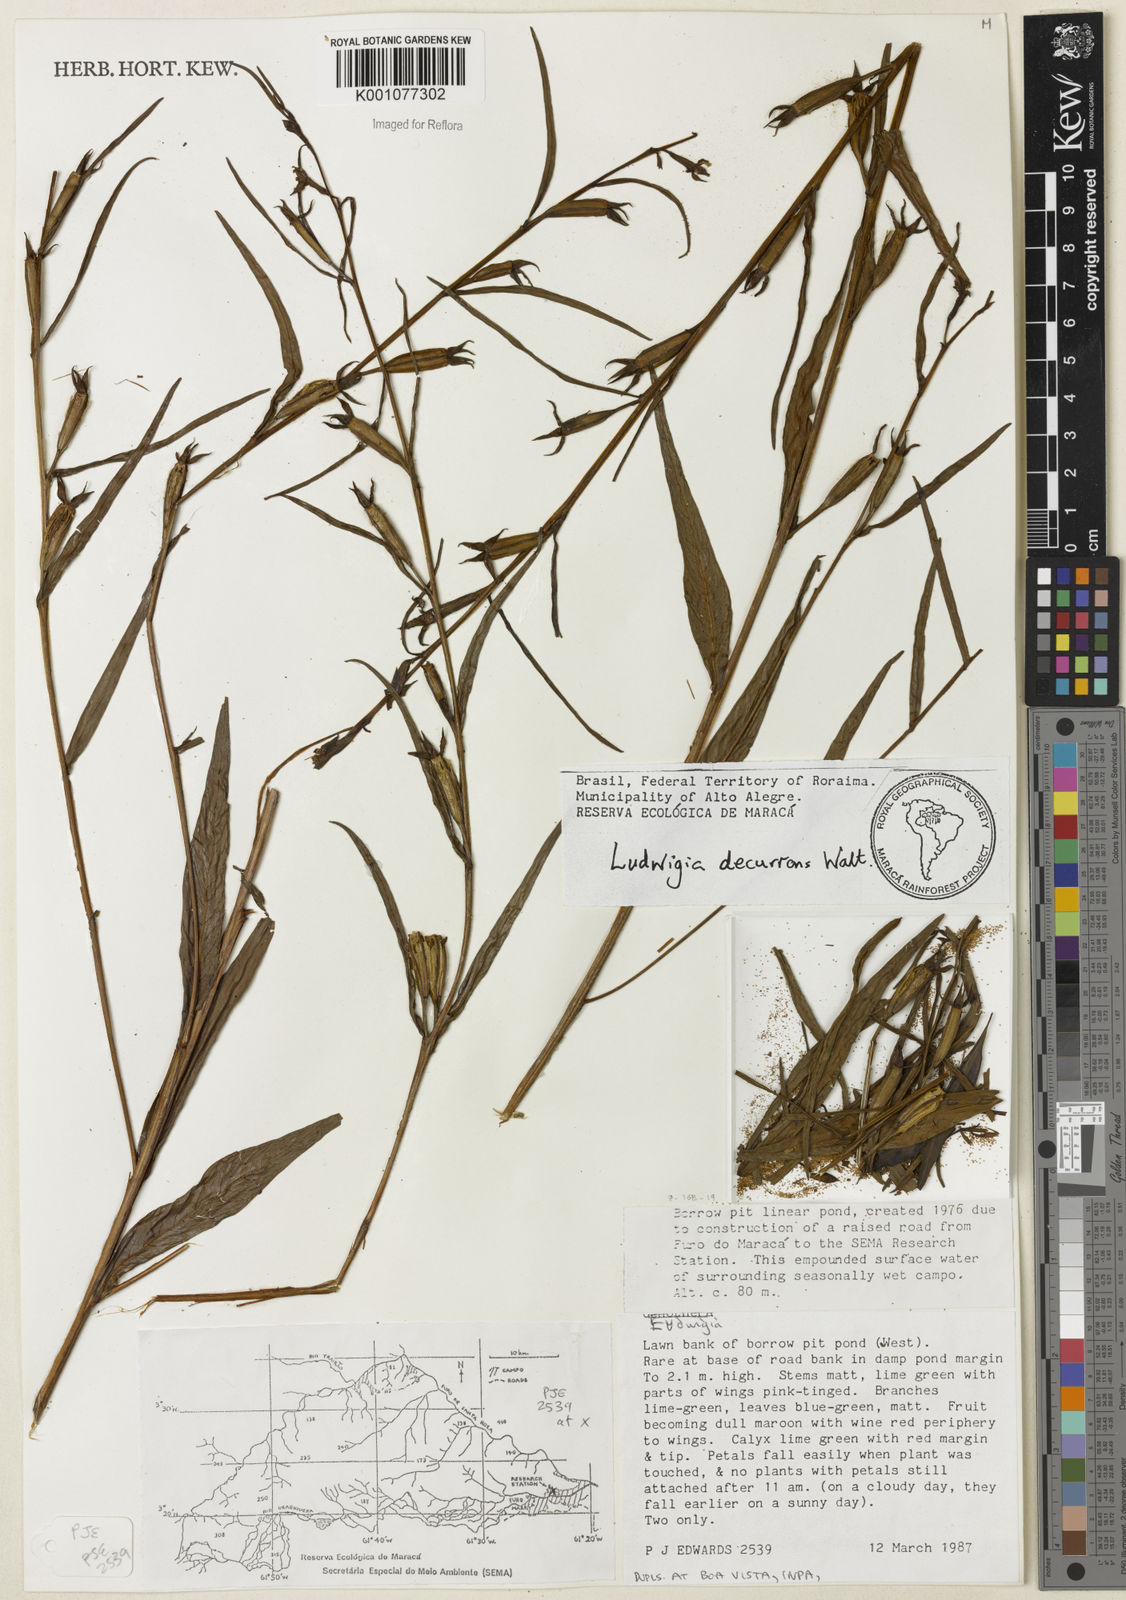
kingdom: Plantae
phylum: Tracheophyta
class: Magnoliopsida
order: Myrtales
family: Onagraceae
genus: Ludwigia
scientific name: Ludwigia decurrens
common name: Winged water-primrose
